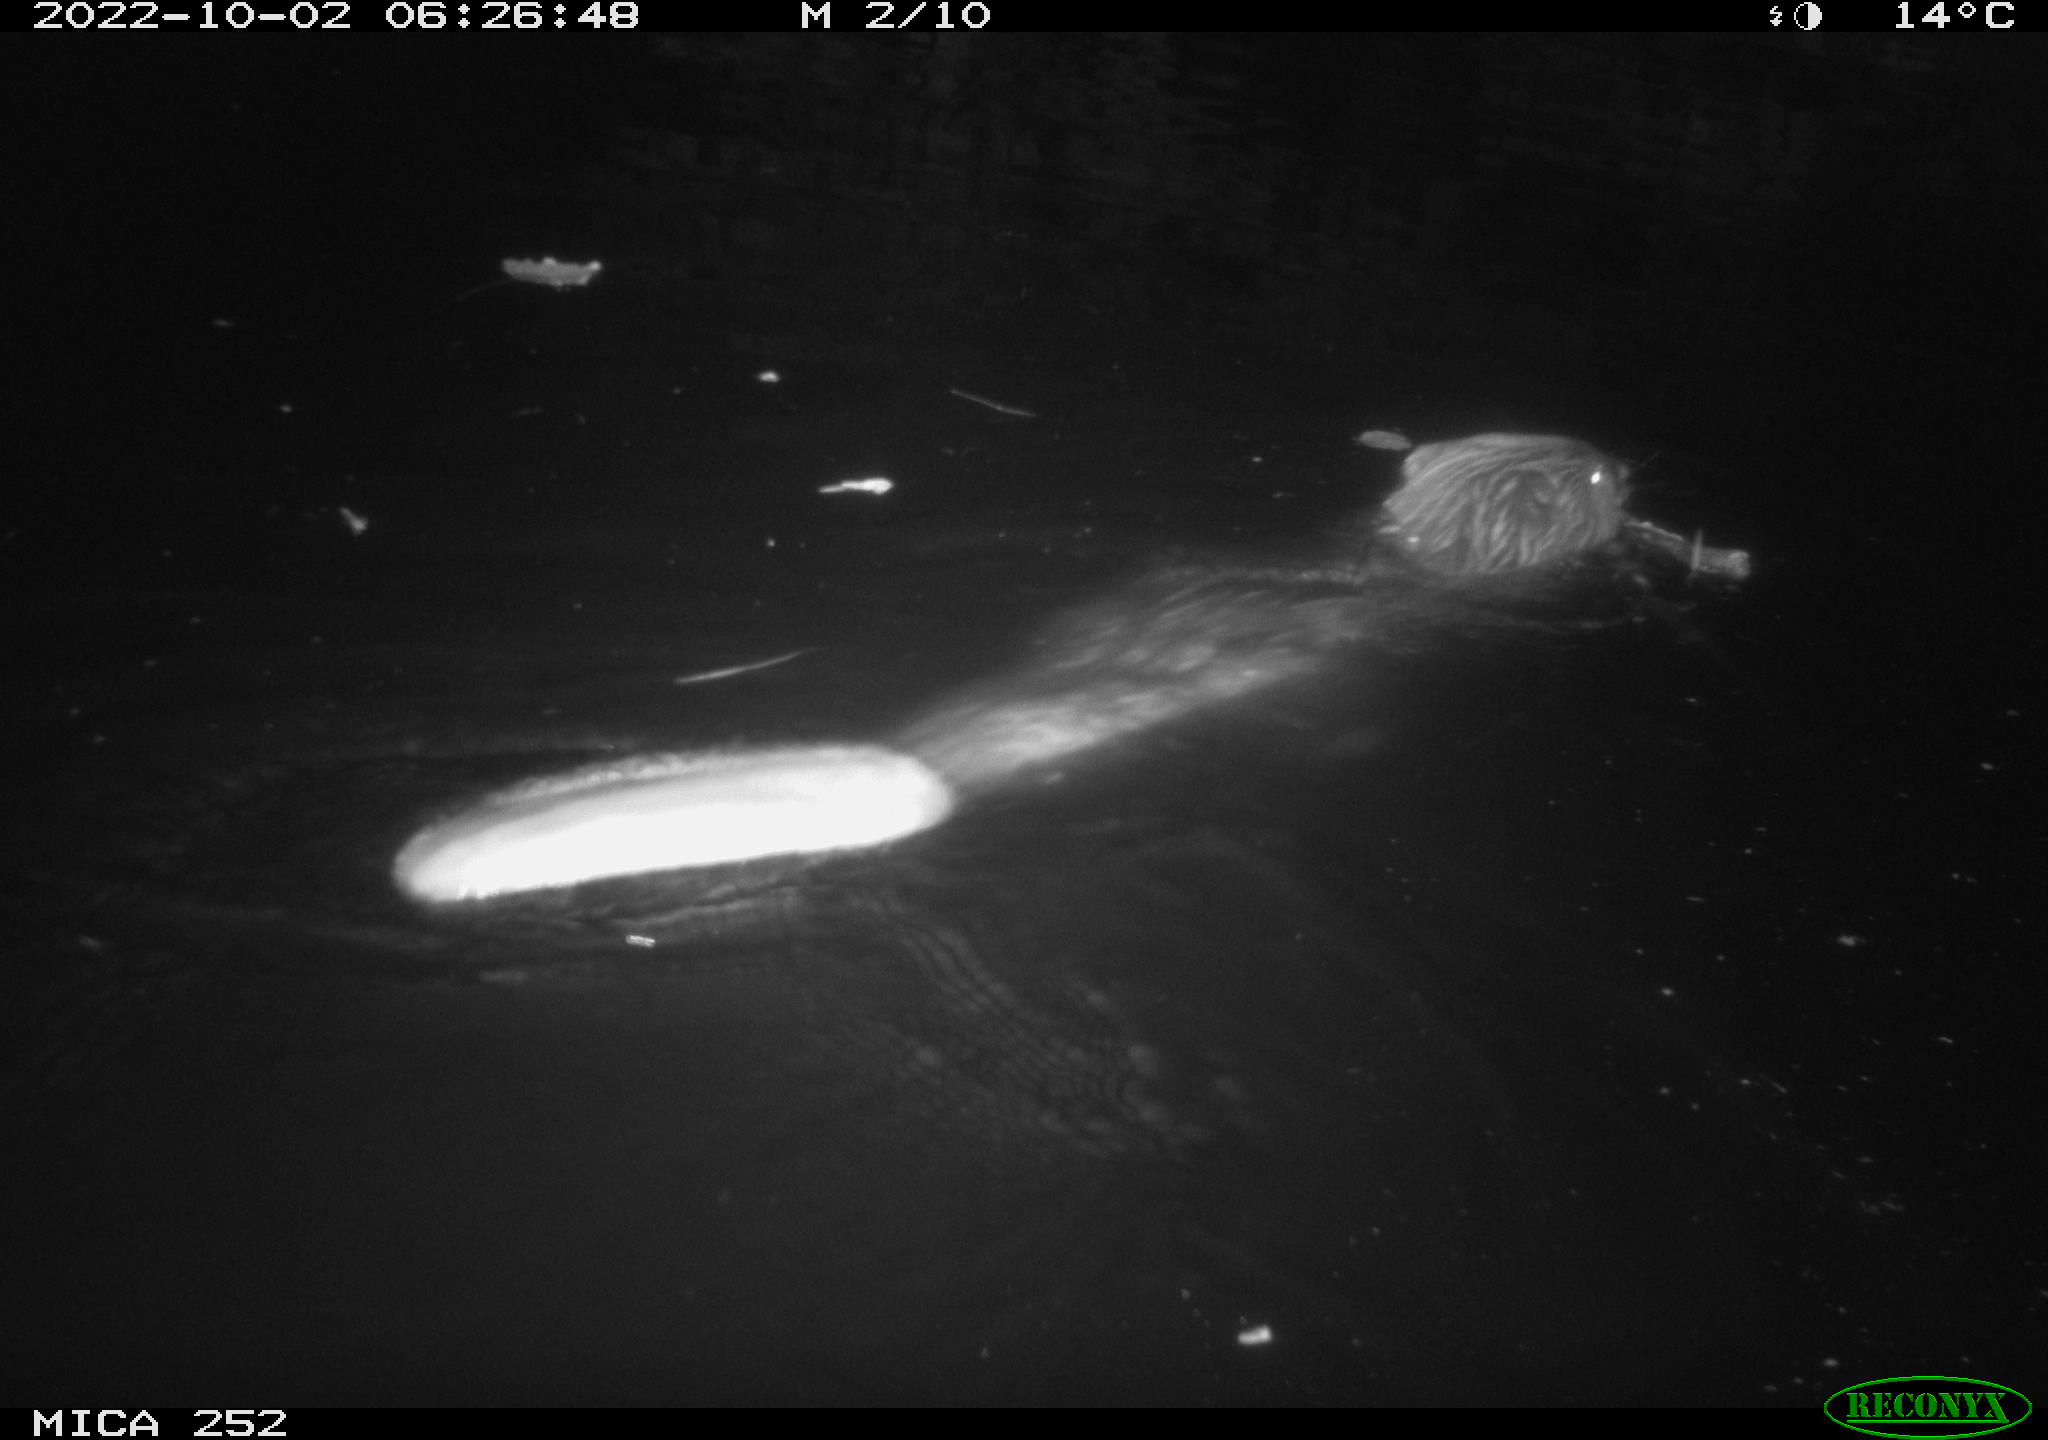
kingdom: Animalia
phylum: Chordata
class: Mammalia
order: Rodentia
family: Castoridae
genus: Castor
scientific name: Castor fiber
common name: Eurasian beaver
